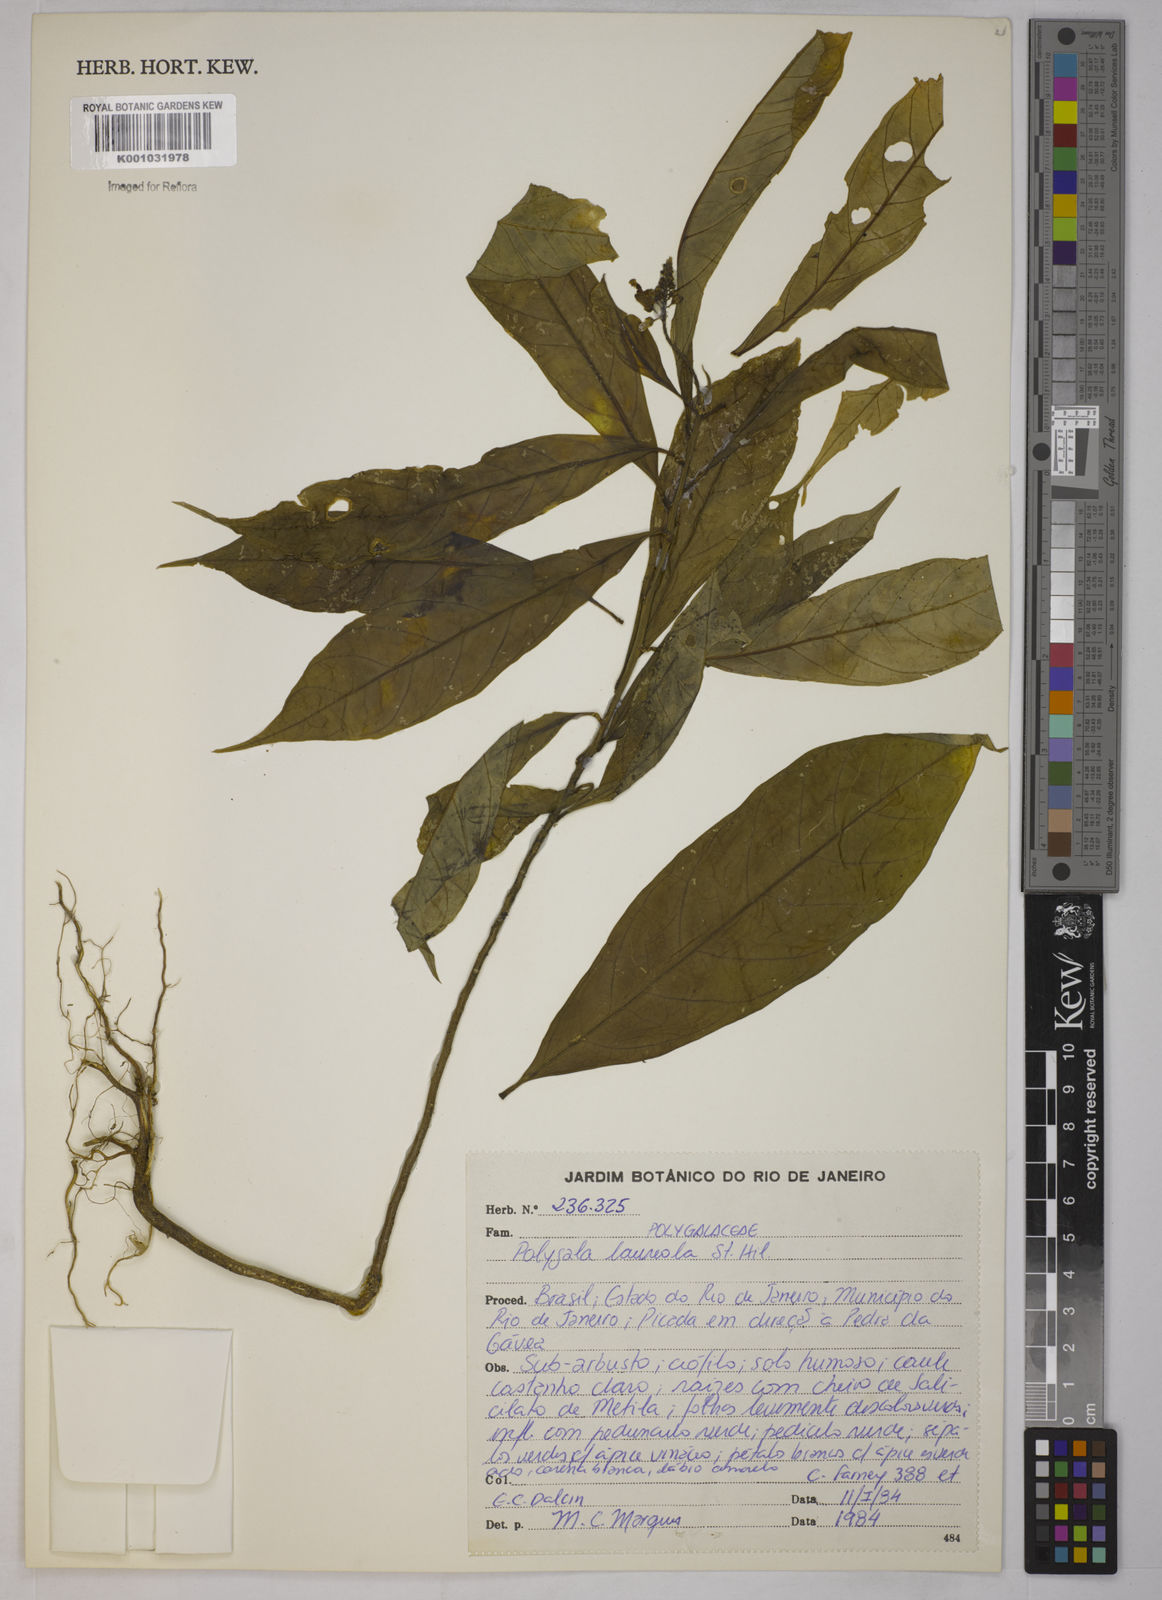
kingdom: Plantae
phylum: Tracheophyta
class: Magnoliopsida
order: Fabales
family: Polygalaceae
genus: Caamembeca
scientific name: Caamembeca salicifolia
